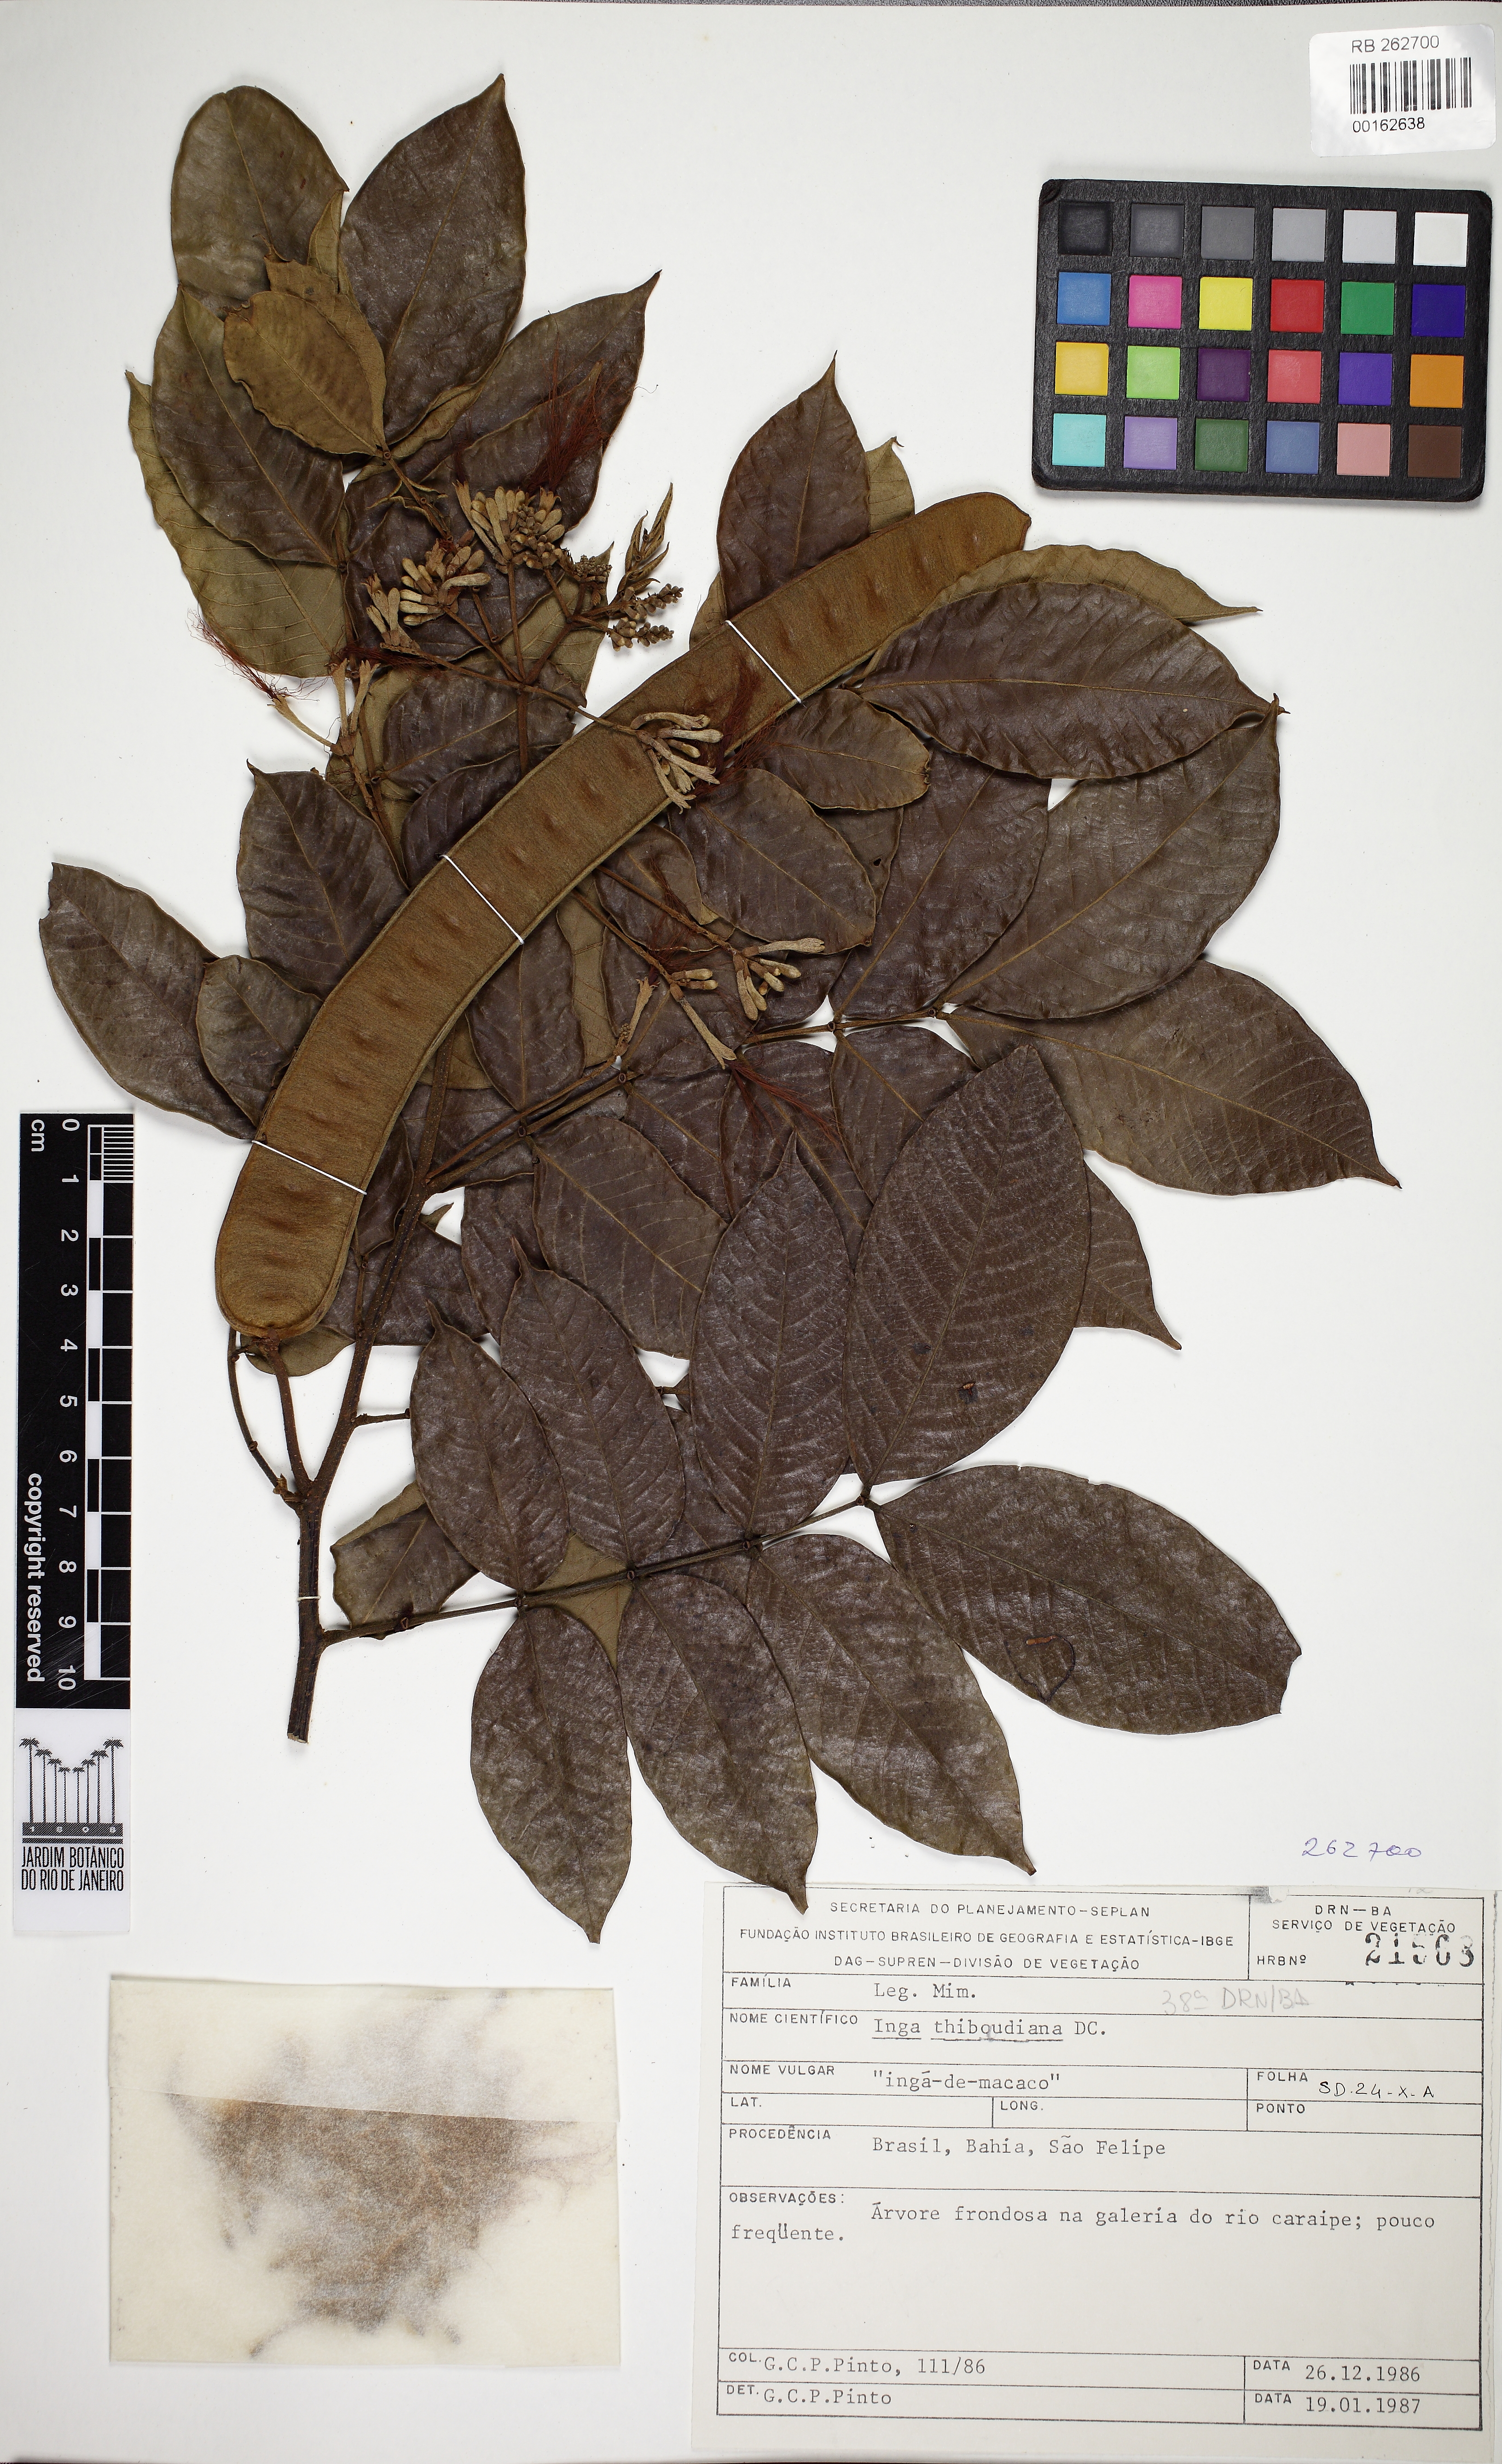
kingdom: Plantae
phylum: Tracheophyta
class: Magnoliopsida
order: Fabales
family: Fabaceae
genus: Inga
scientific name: Inga thibaudiana
